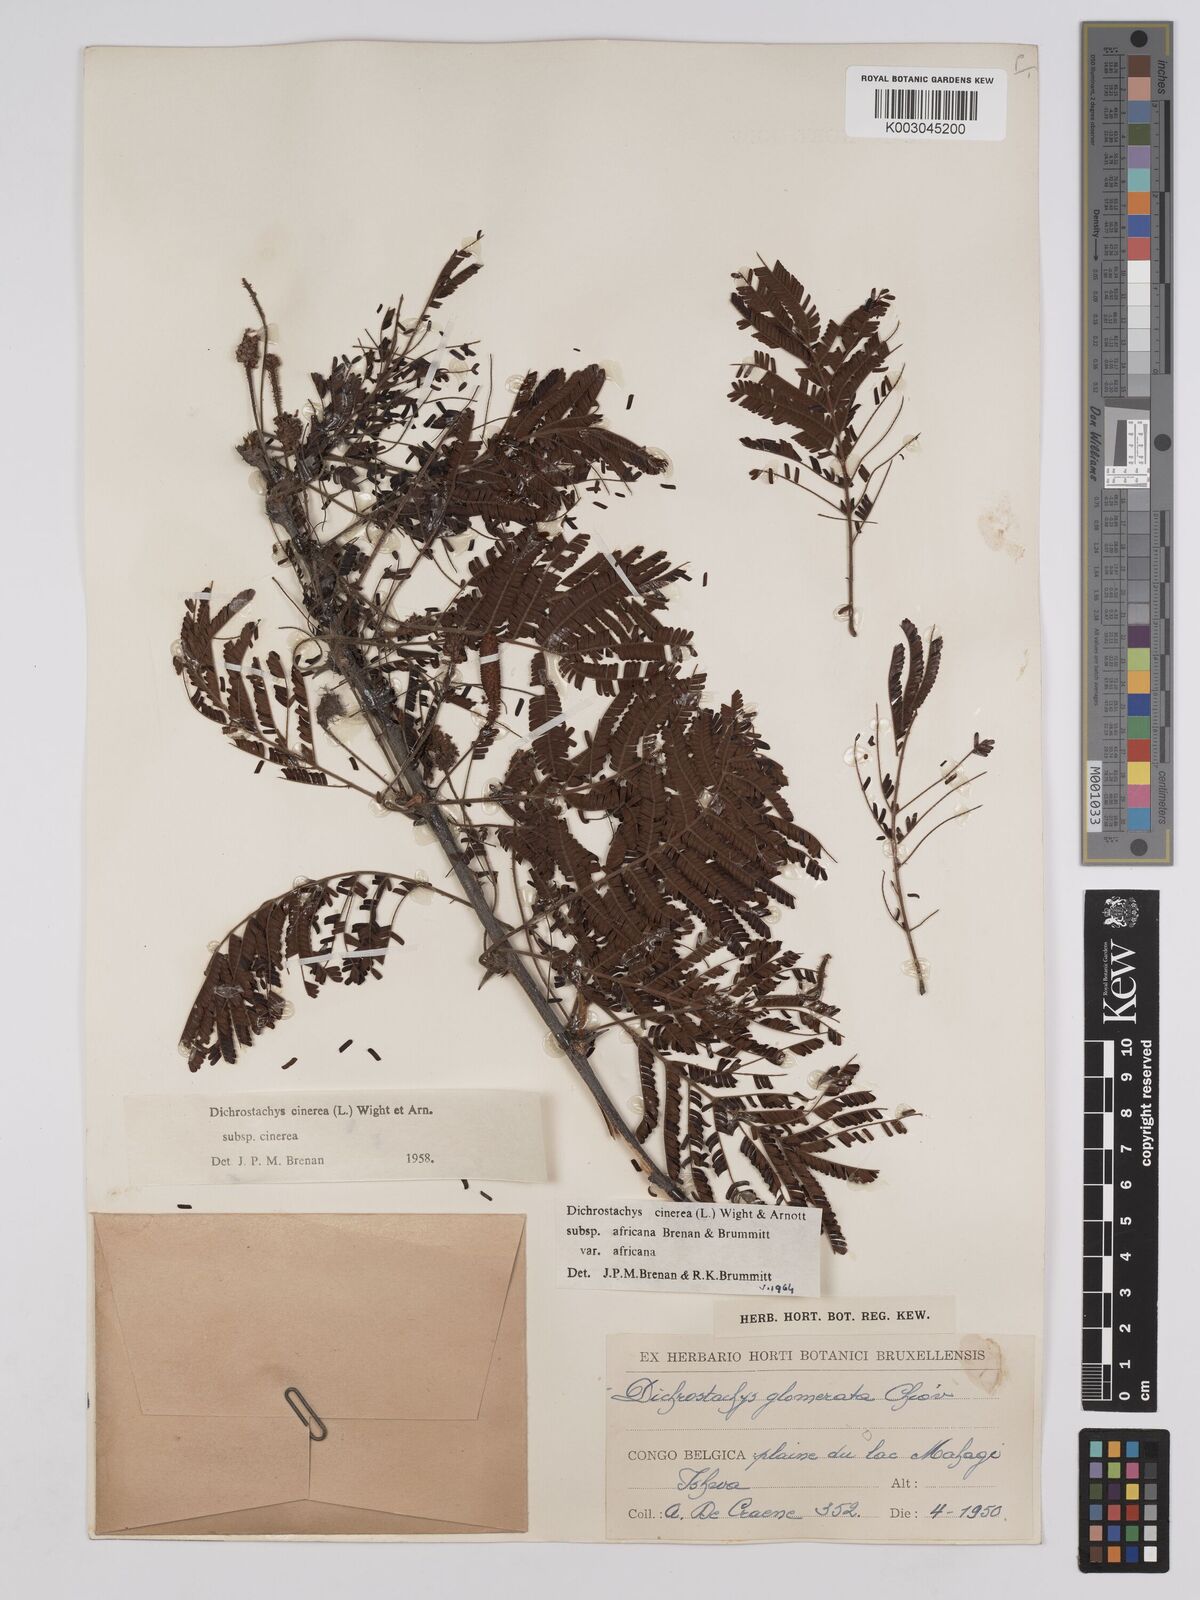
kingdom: Plantae
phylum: Tracheophyta
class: Magnoliopsida
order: Fabales
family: Fabaceae
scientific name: Fabaceae
